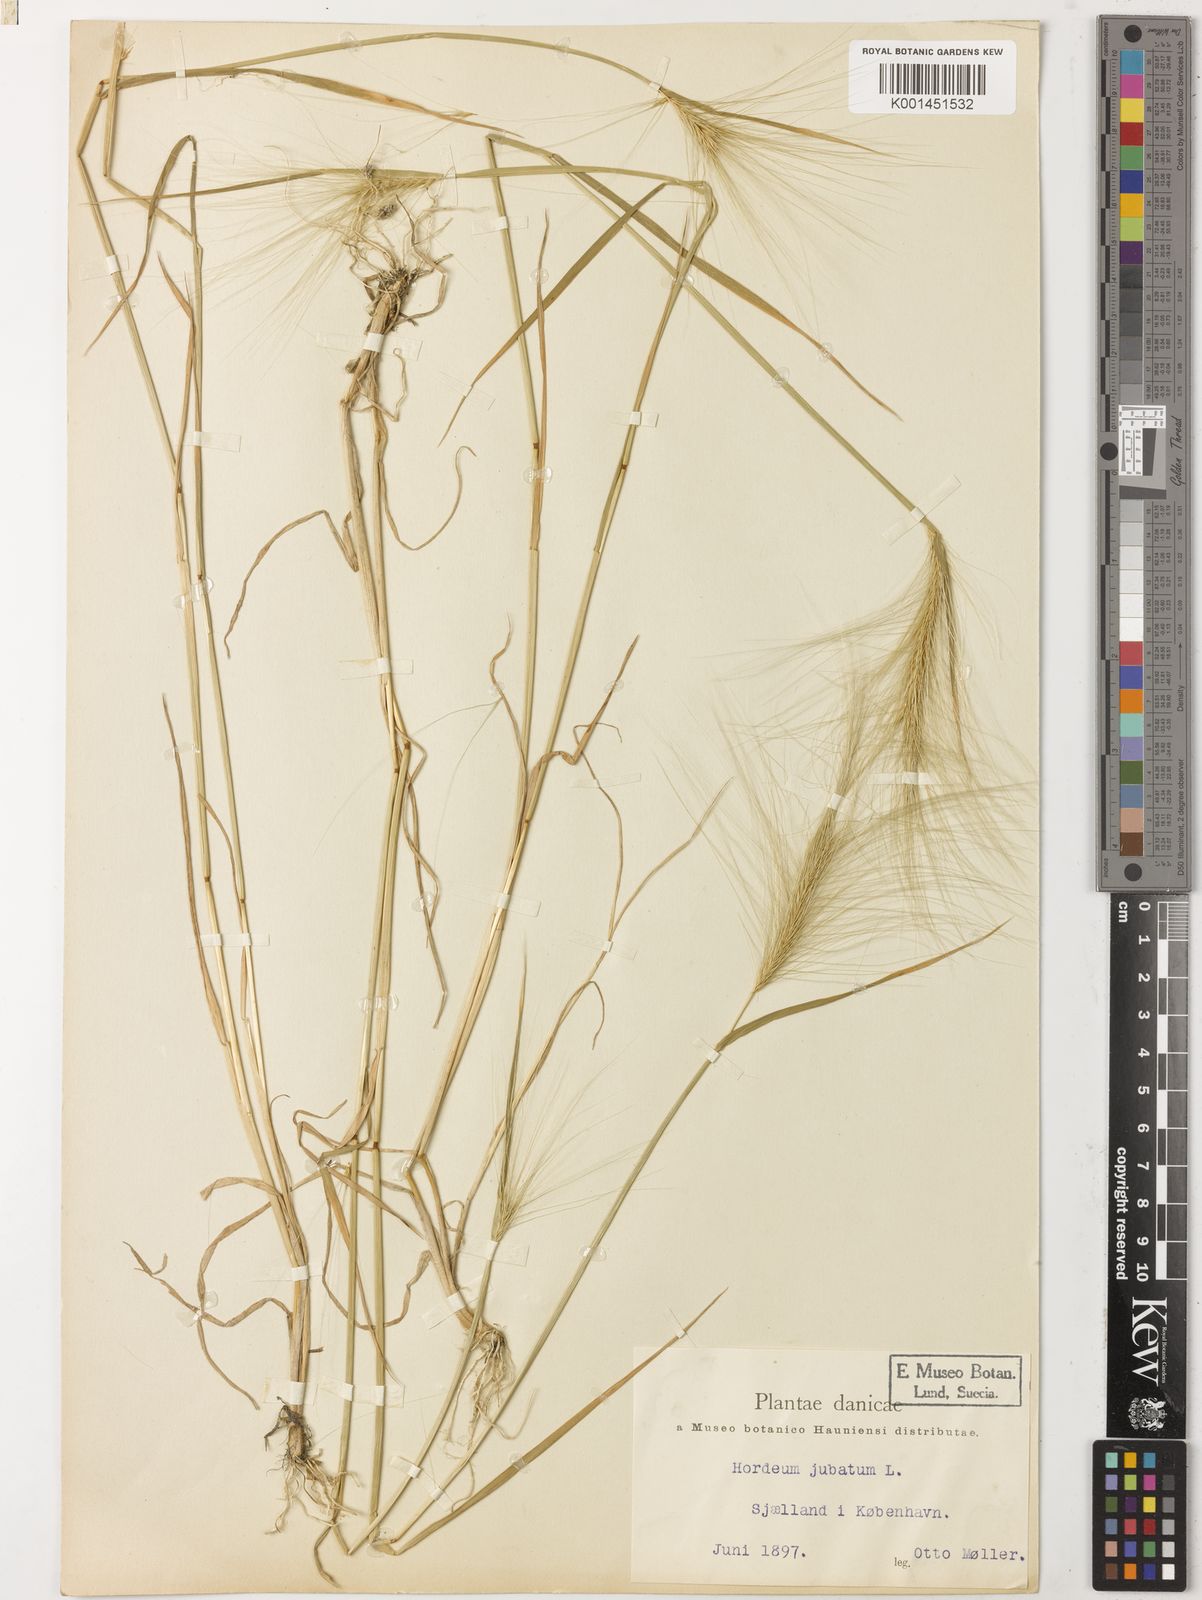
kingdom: Plantae
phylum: Tracheophyta
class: Liliopsida
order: Poales
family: Poaceae
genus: Hordeum
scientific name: Hordeum jubatum
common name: Foxtail barley
